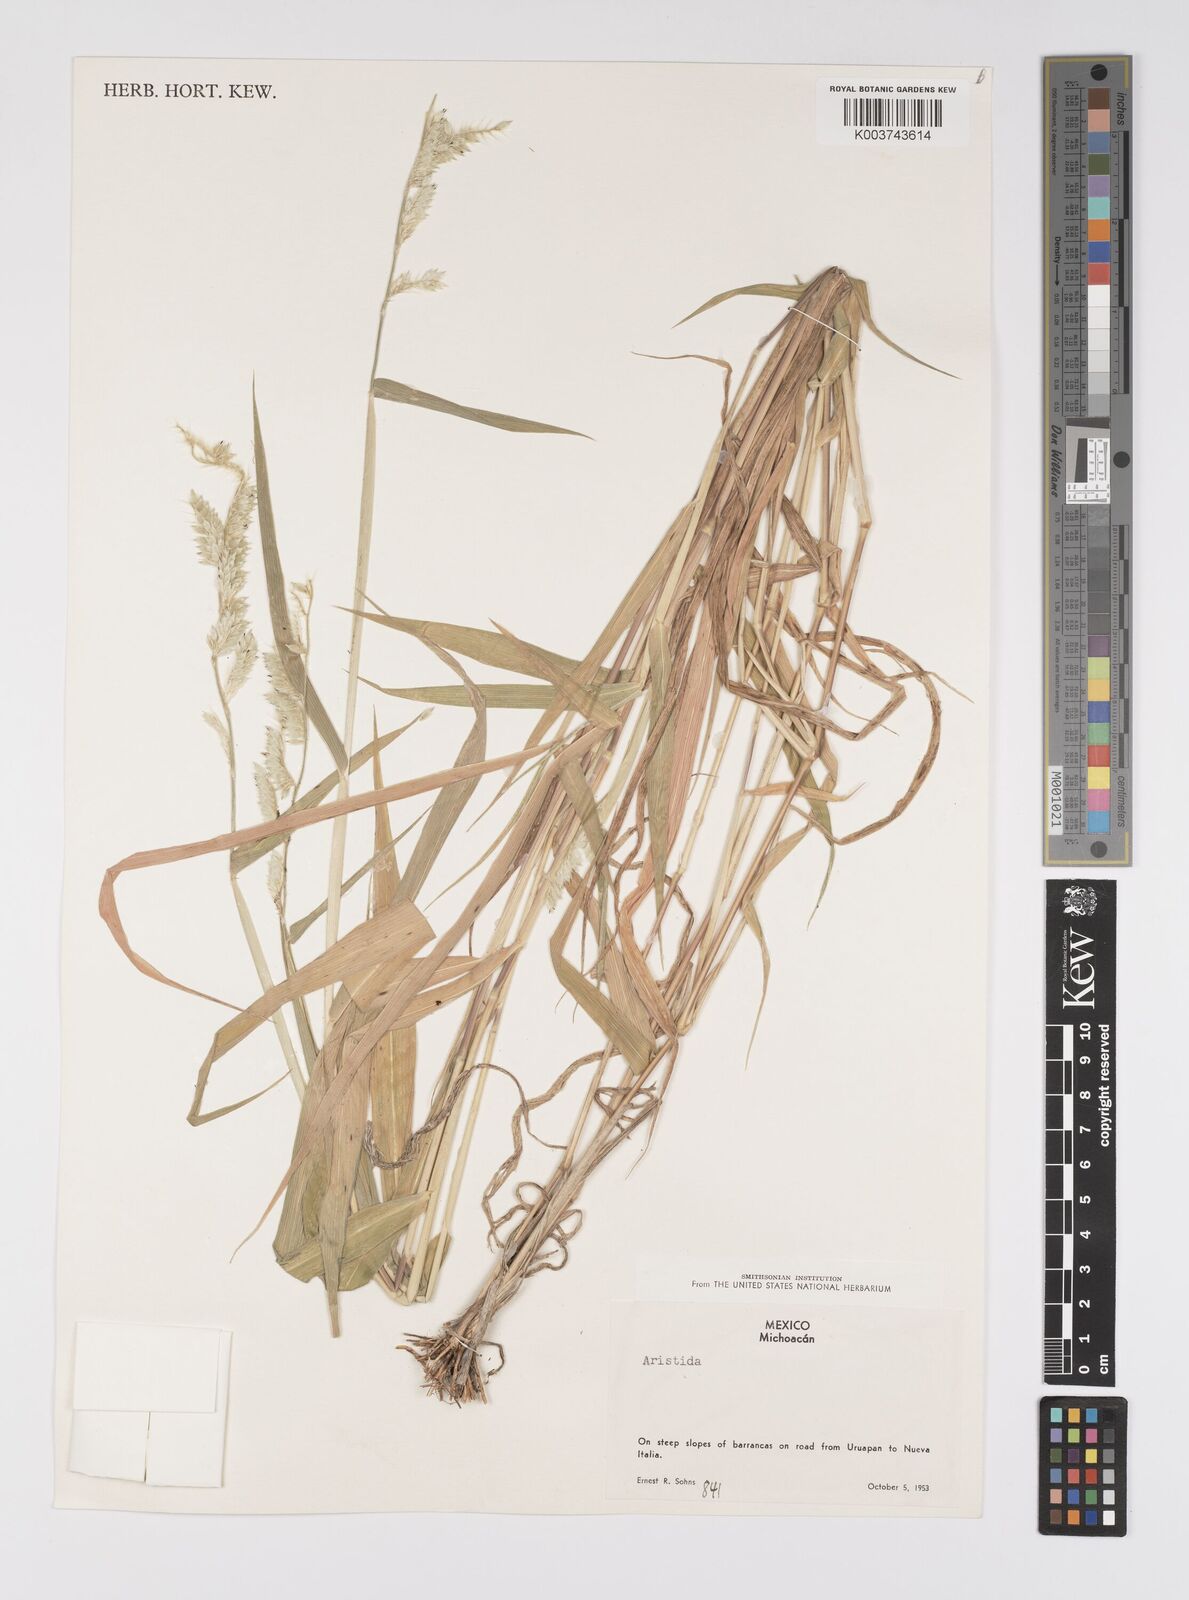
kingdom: Plantae
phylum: Tracheophyta
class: Liliopsida
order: Poales
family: Poaceae
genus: Urochloa
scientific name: Urochloa ciliatissima
